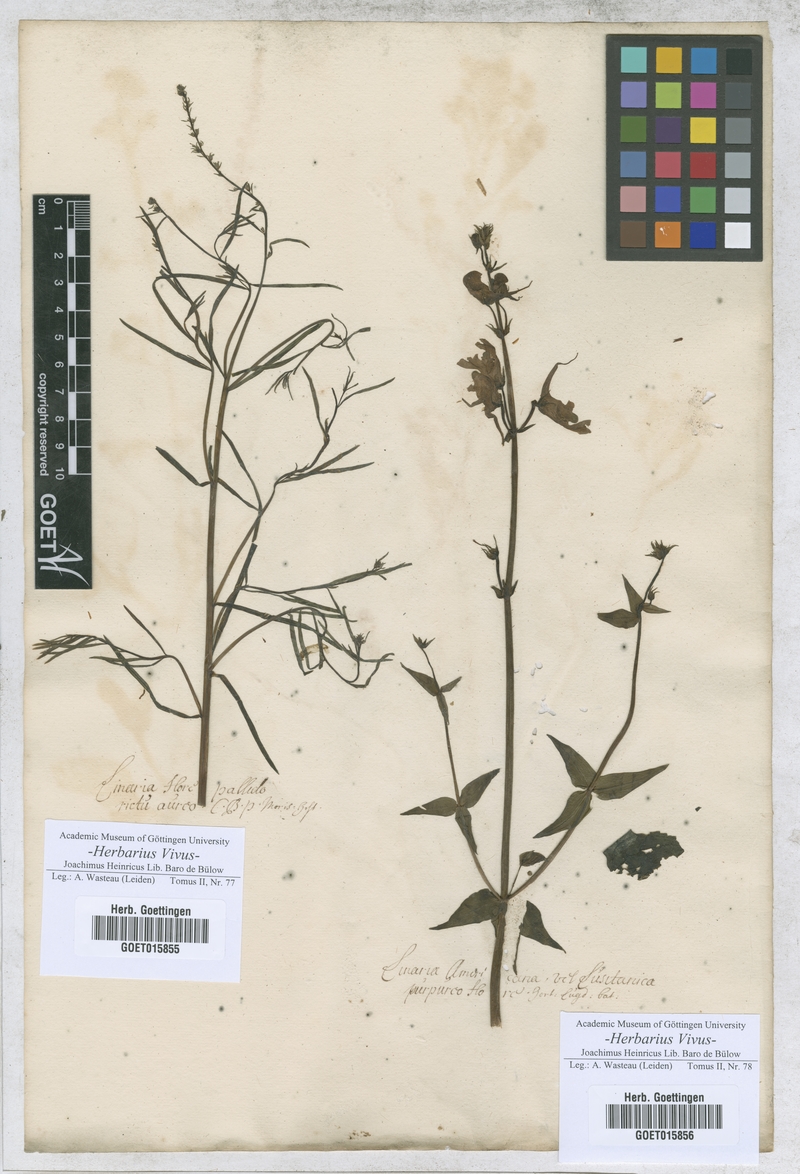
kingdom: Plantae
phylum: Tracheophyta
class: Magnoliopsida
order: Lamiales
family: Plantaginaceae
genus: Linaria
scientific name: Linaria
